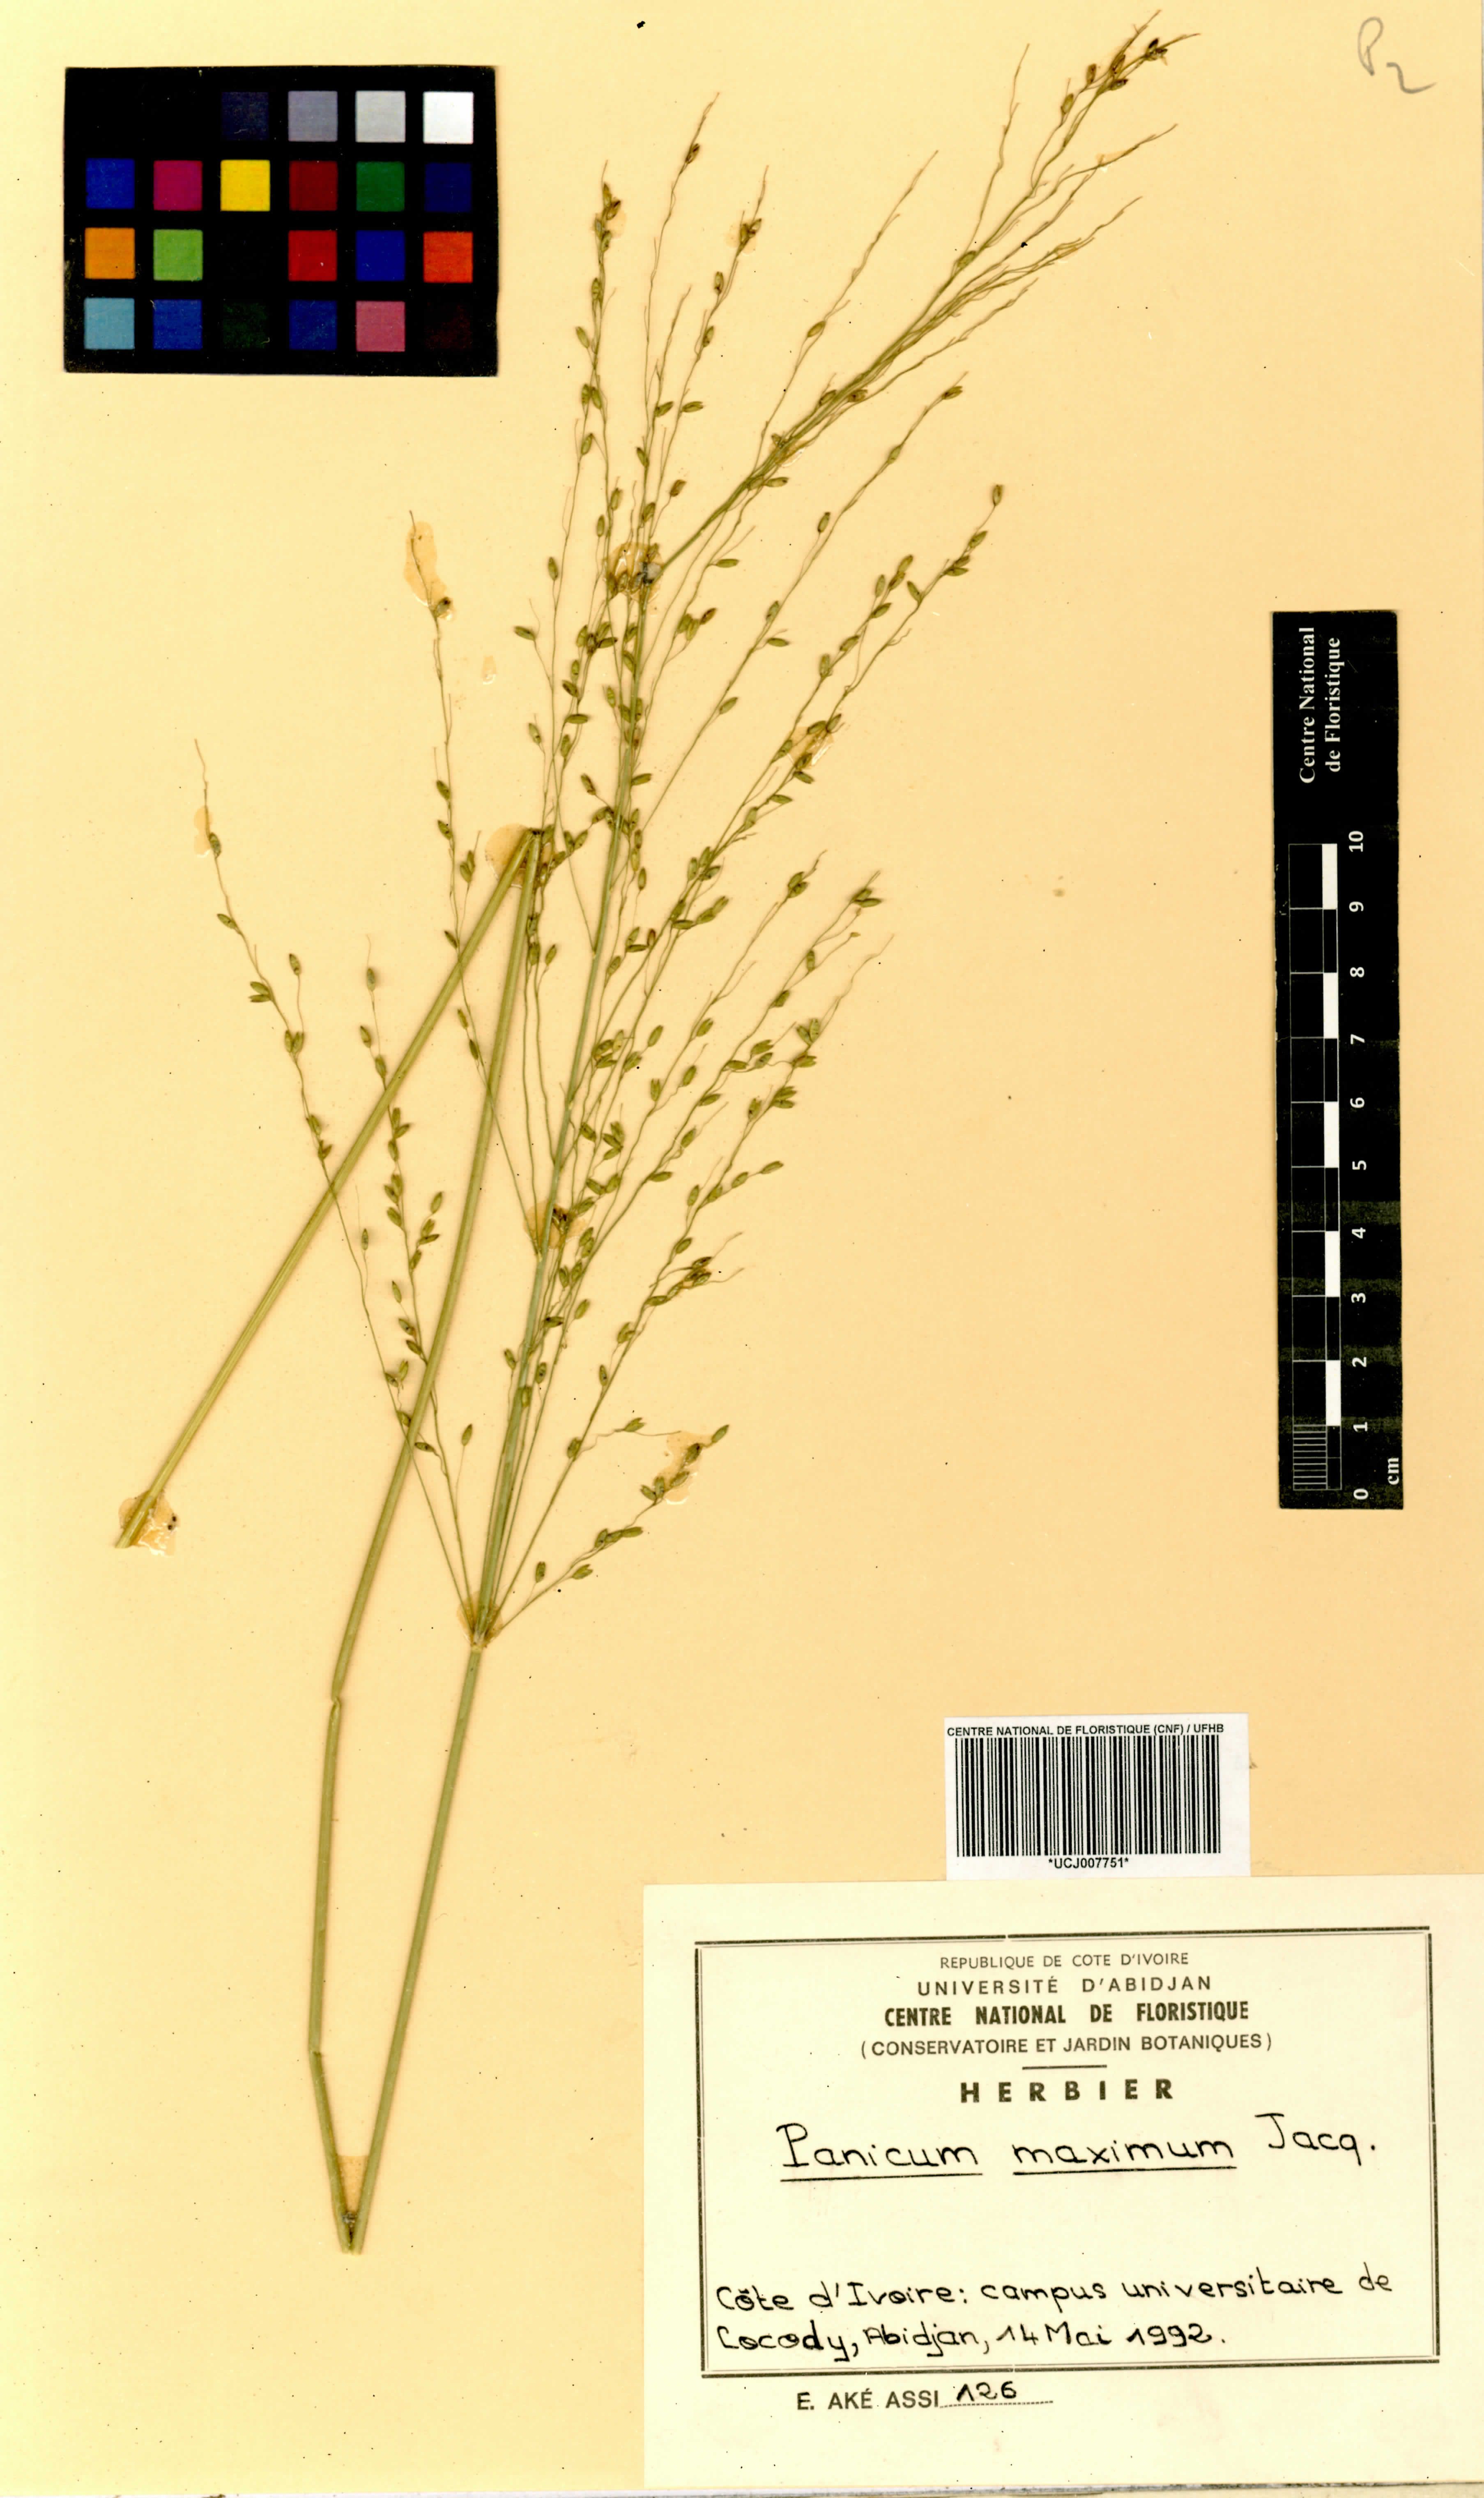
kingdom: Plantae
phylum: Tracheophyta
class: Liliopsida
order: Poales
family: Poaceae
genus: Megathyrsus
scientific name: Megathyrsus maximus
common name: Guineagrass
